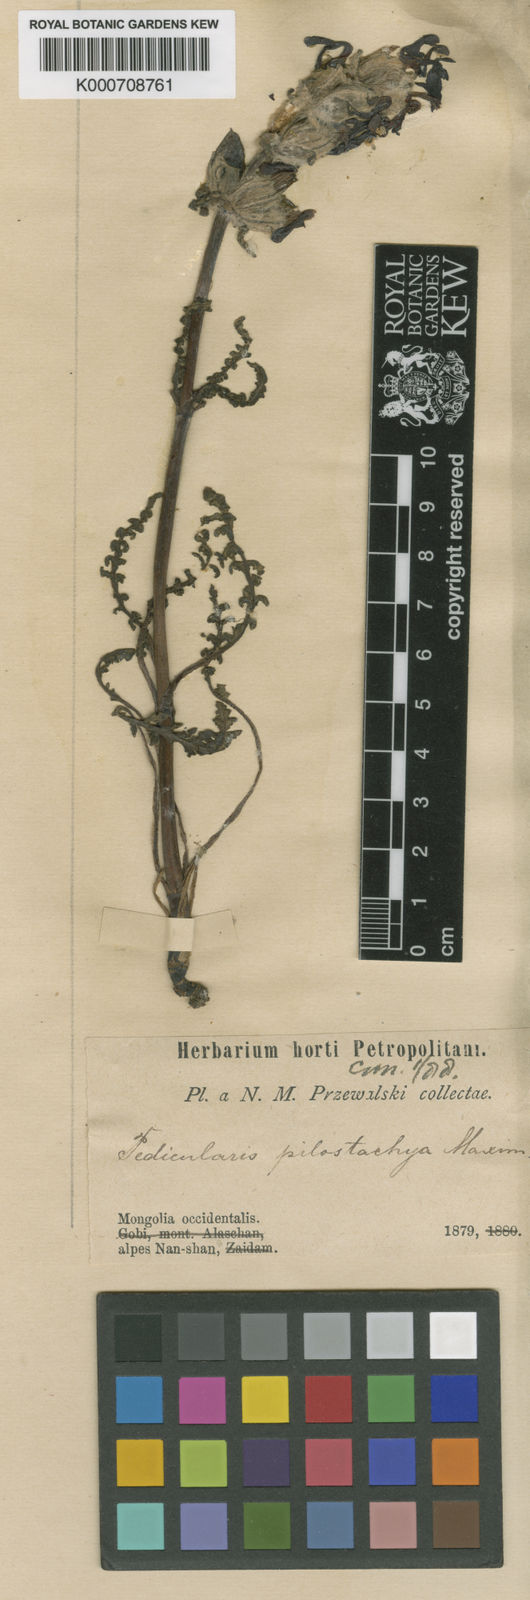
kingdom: Plantae
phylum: Tracheophyta
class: Magnoliopsida
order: Lamiales
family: Orobanchaceae
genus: Pedicularis
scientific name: Pedicularis pilostachya
